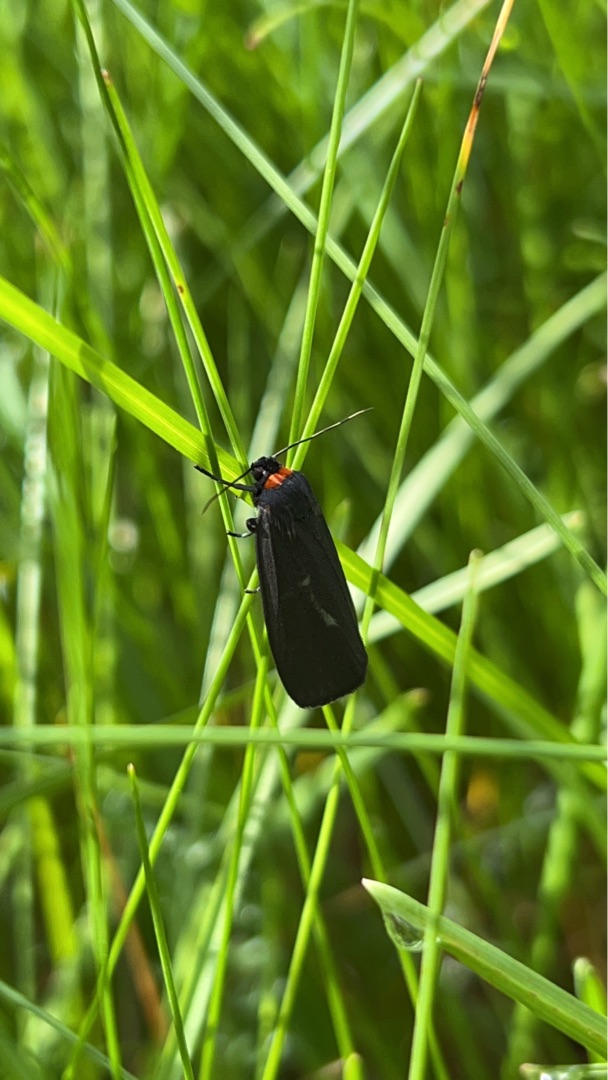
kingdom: Animalia
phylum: Arthropoda
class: Insecta
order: Lepidoptera
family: Erebidae
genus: Atolmis
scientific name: Atolmis rubricollis
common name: Blodnakke
